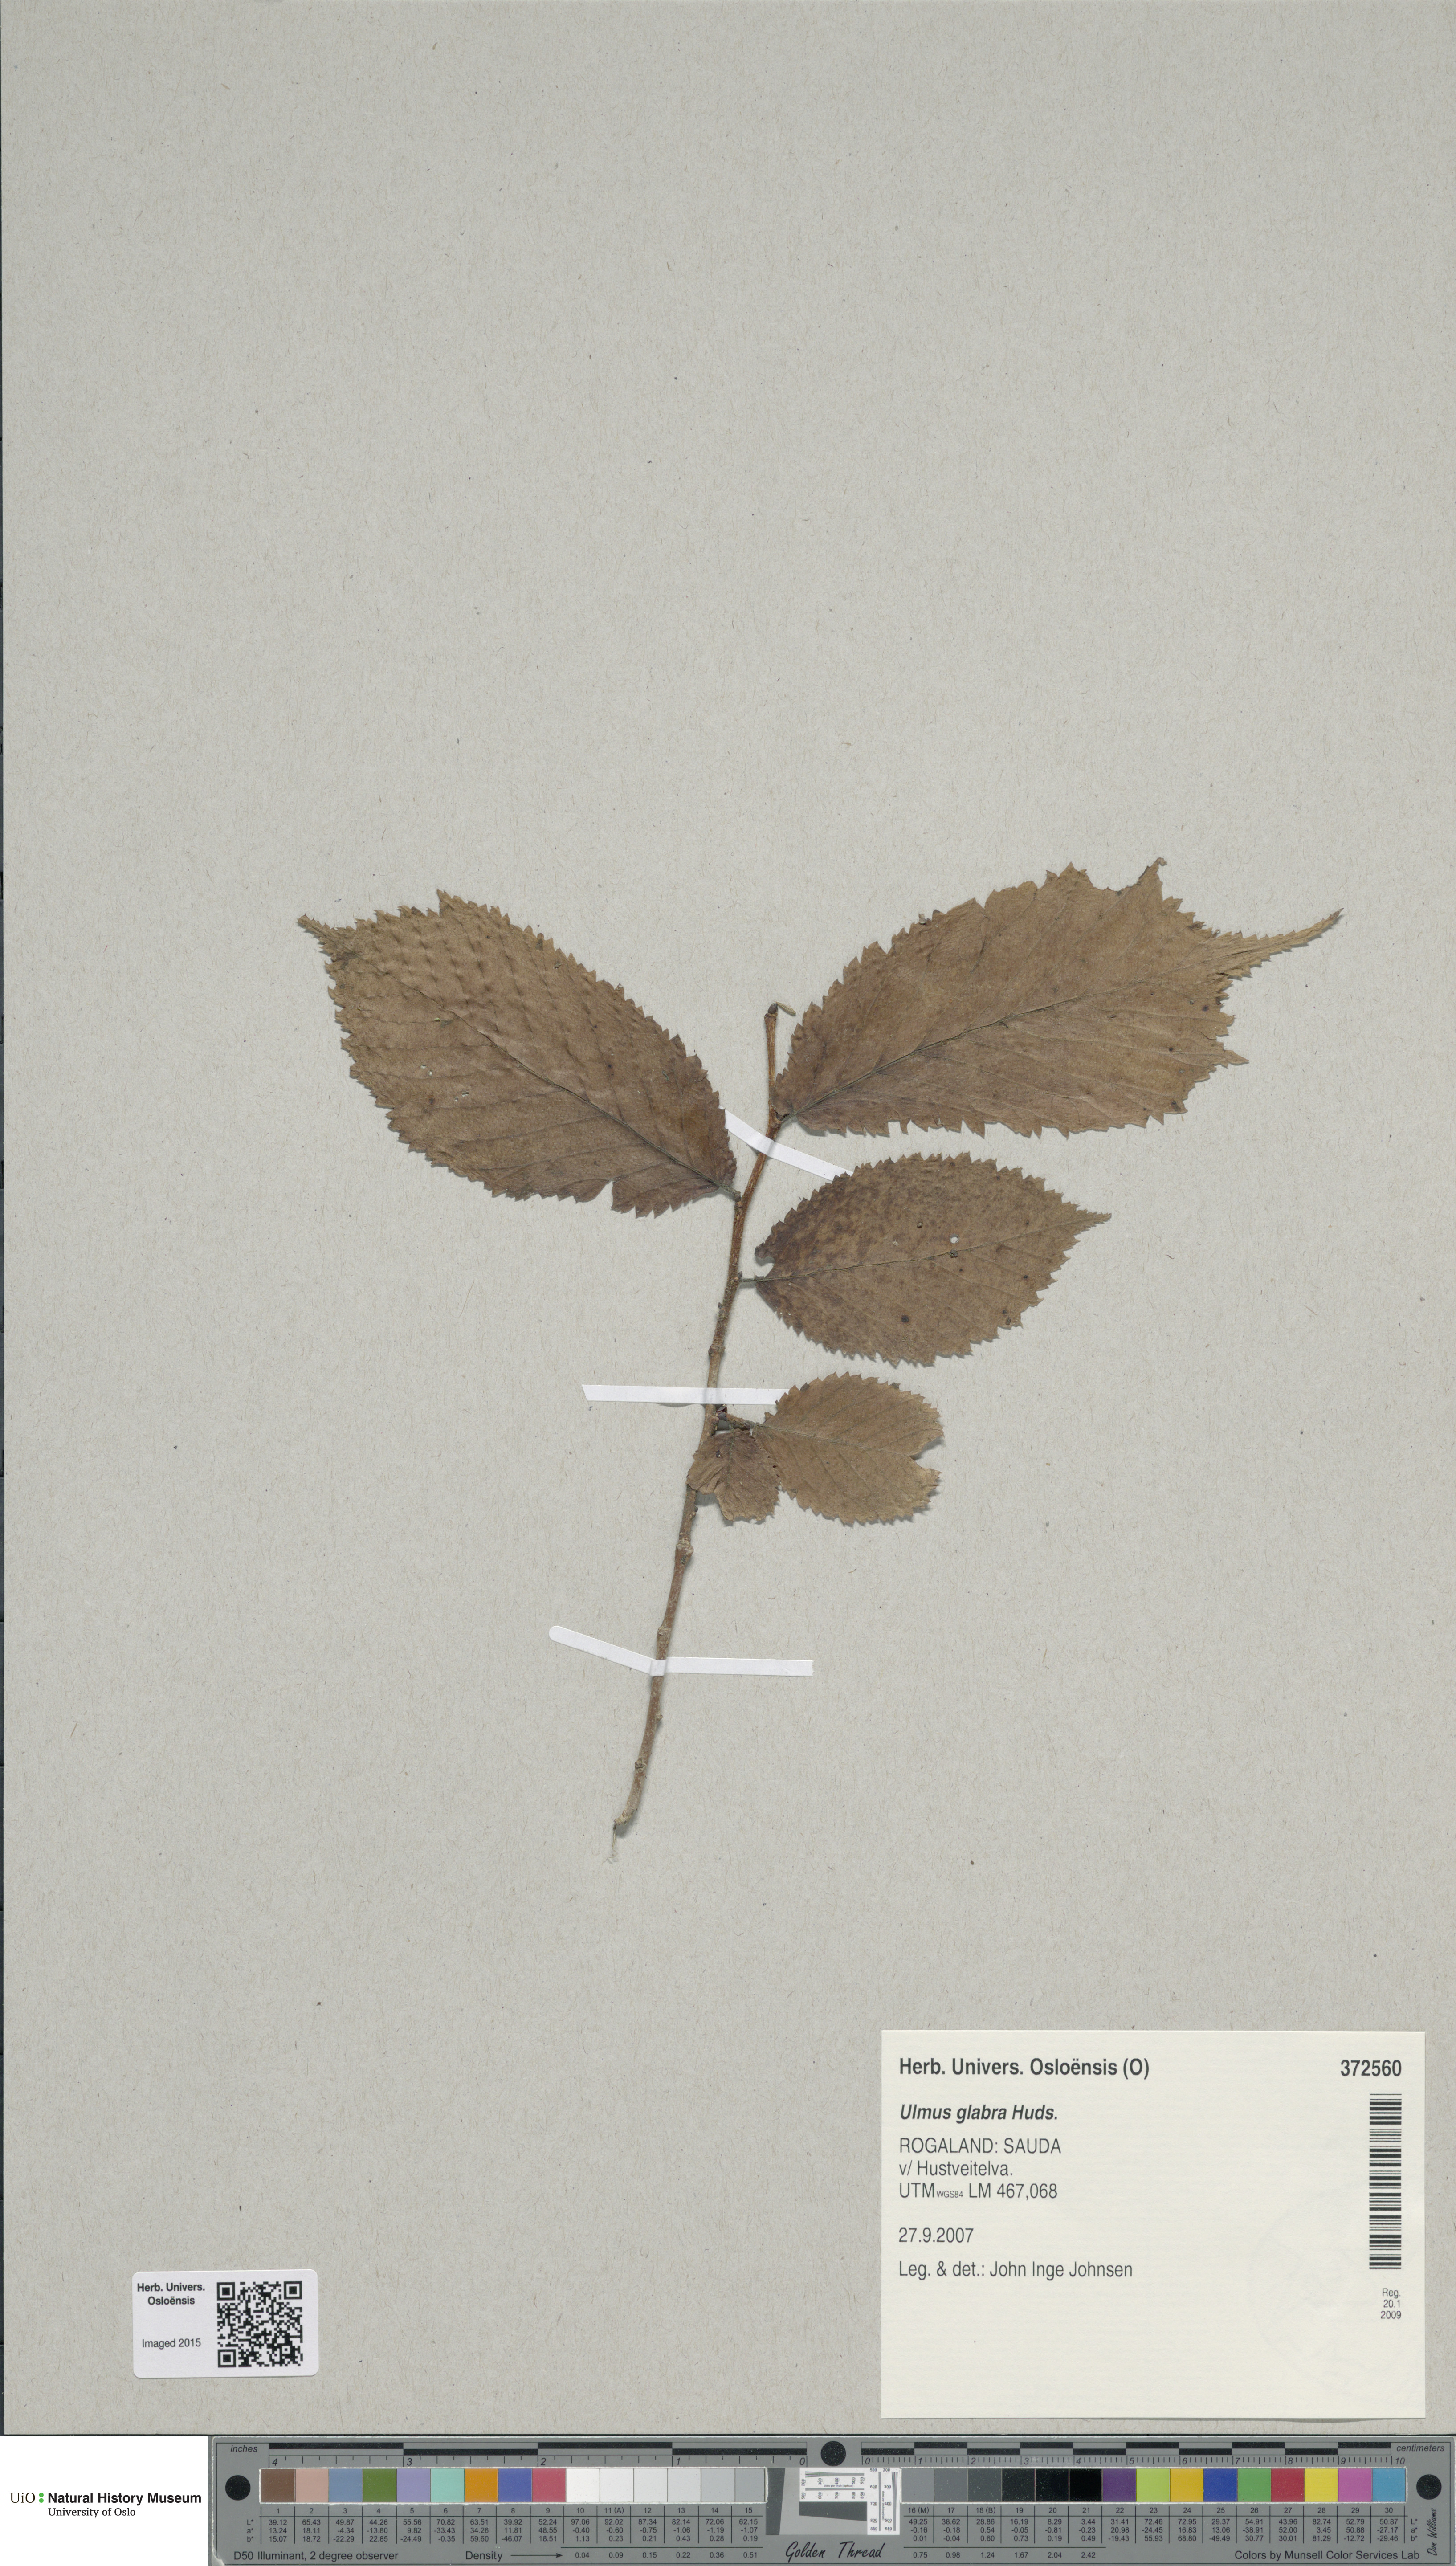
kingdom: Plantae
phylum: Tracheophyta
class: Magnoliopsida
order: Rosales
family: Ulmaceae
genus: Ulmus
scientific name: Ulmus glabra
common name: Wych elm
